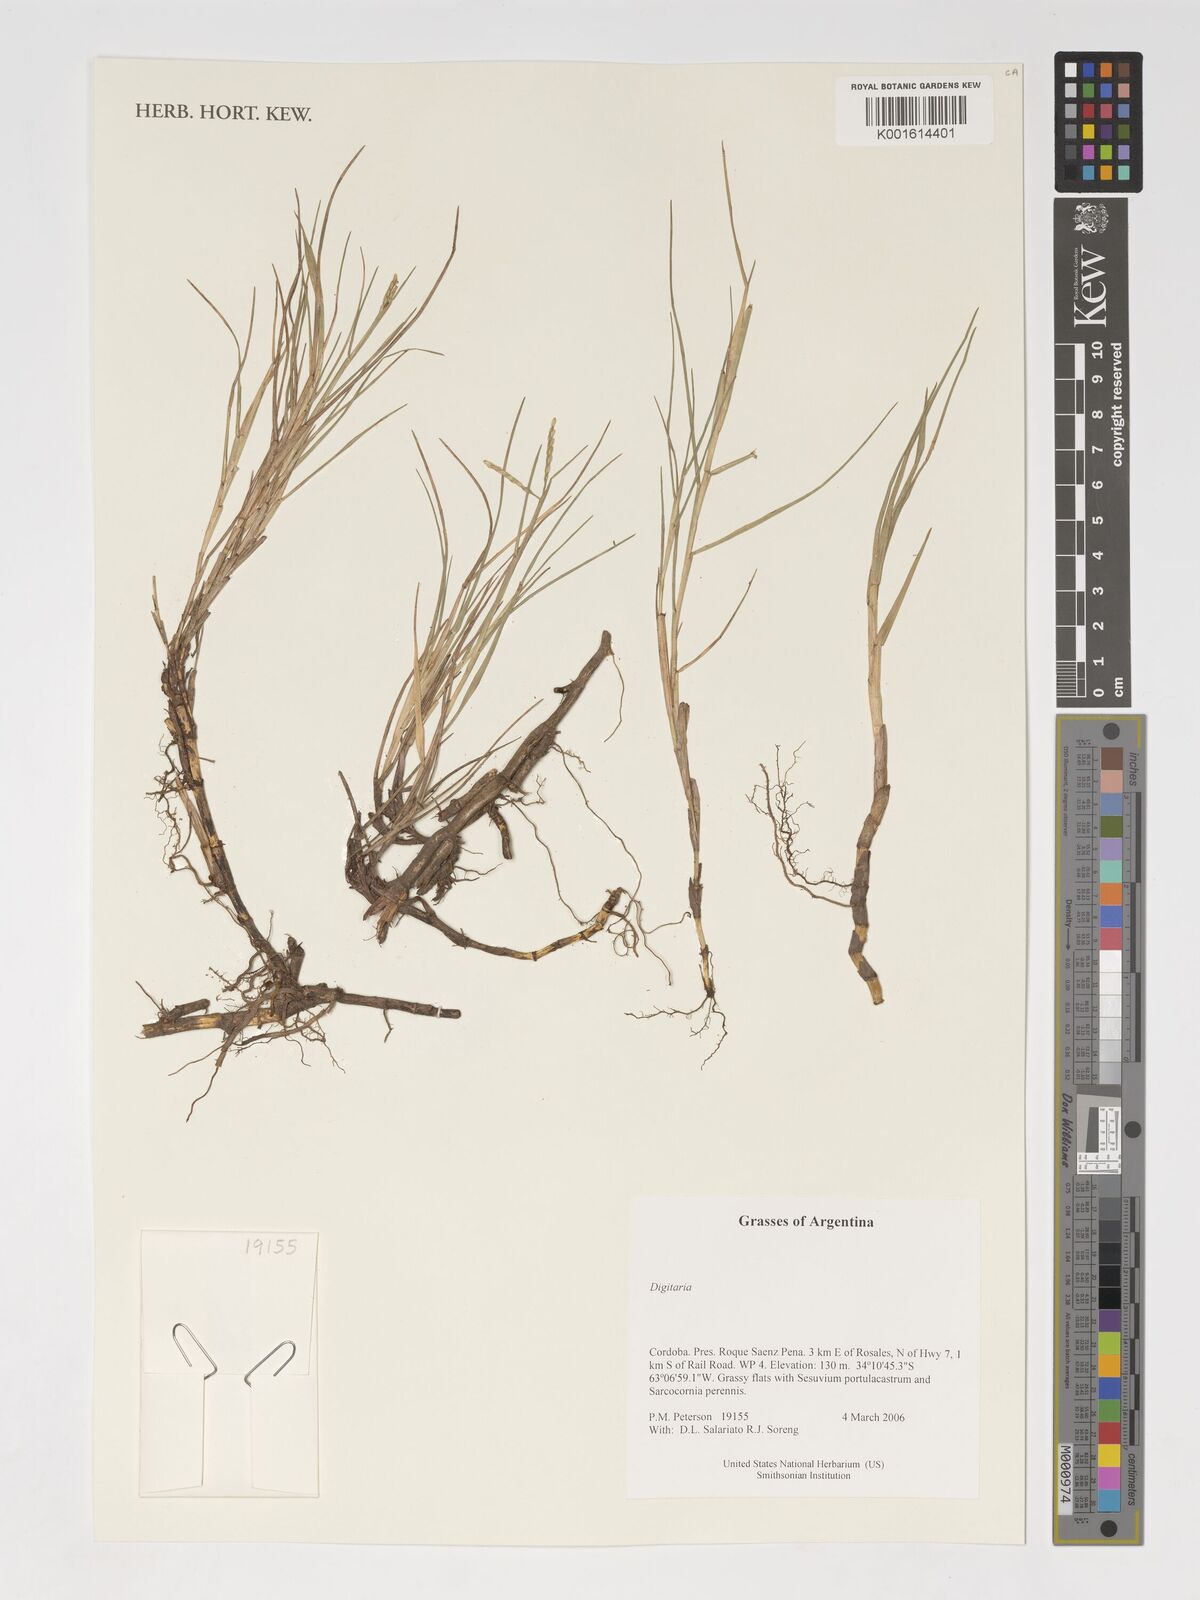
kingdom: Plantae
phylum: Tracheophyta
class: Liliopsida
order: Poales
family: Poaceae
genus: Digitaria
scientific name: Digitaria spec
